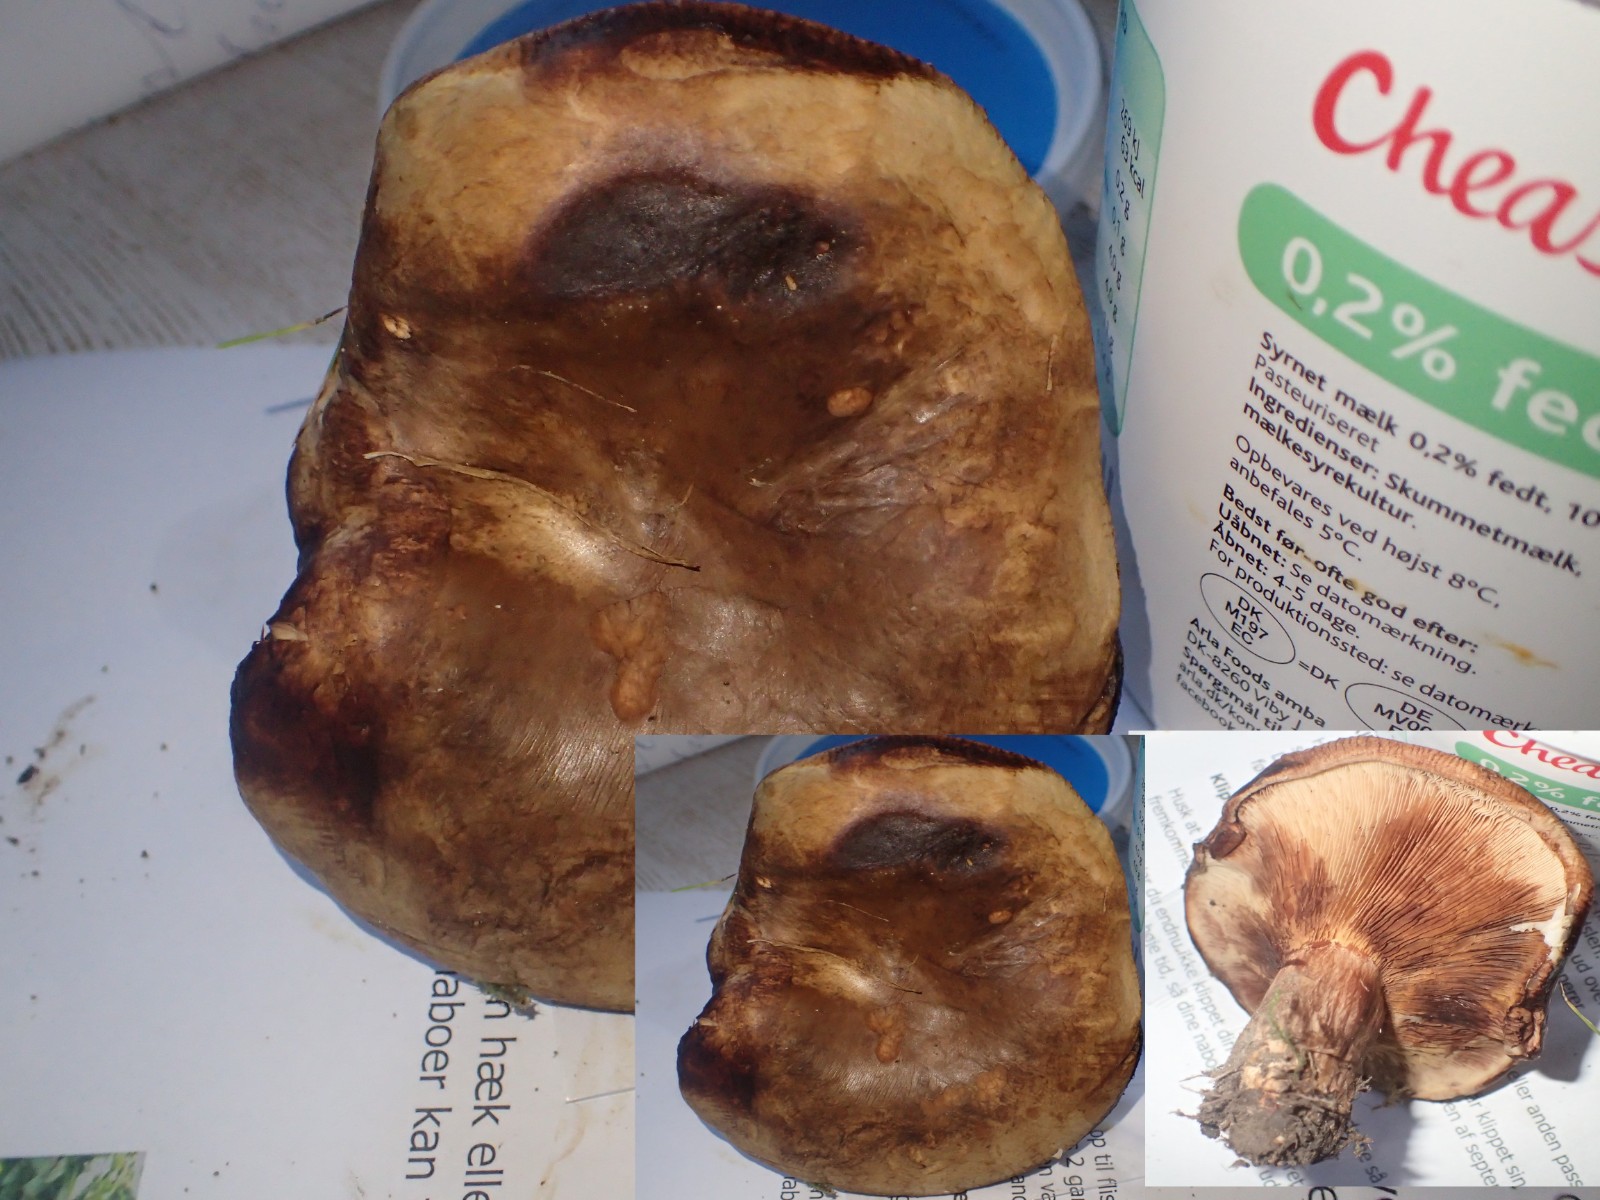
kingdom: Fungi
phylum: Basidiomycota
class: Agaricomycetes
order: Boletales
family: Paxillaceae
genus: Paxillus
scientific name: Paxillus involutus
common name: almindelig netbladhat
